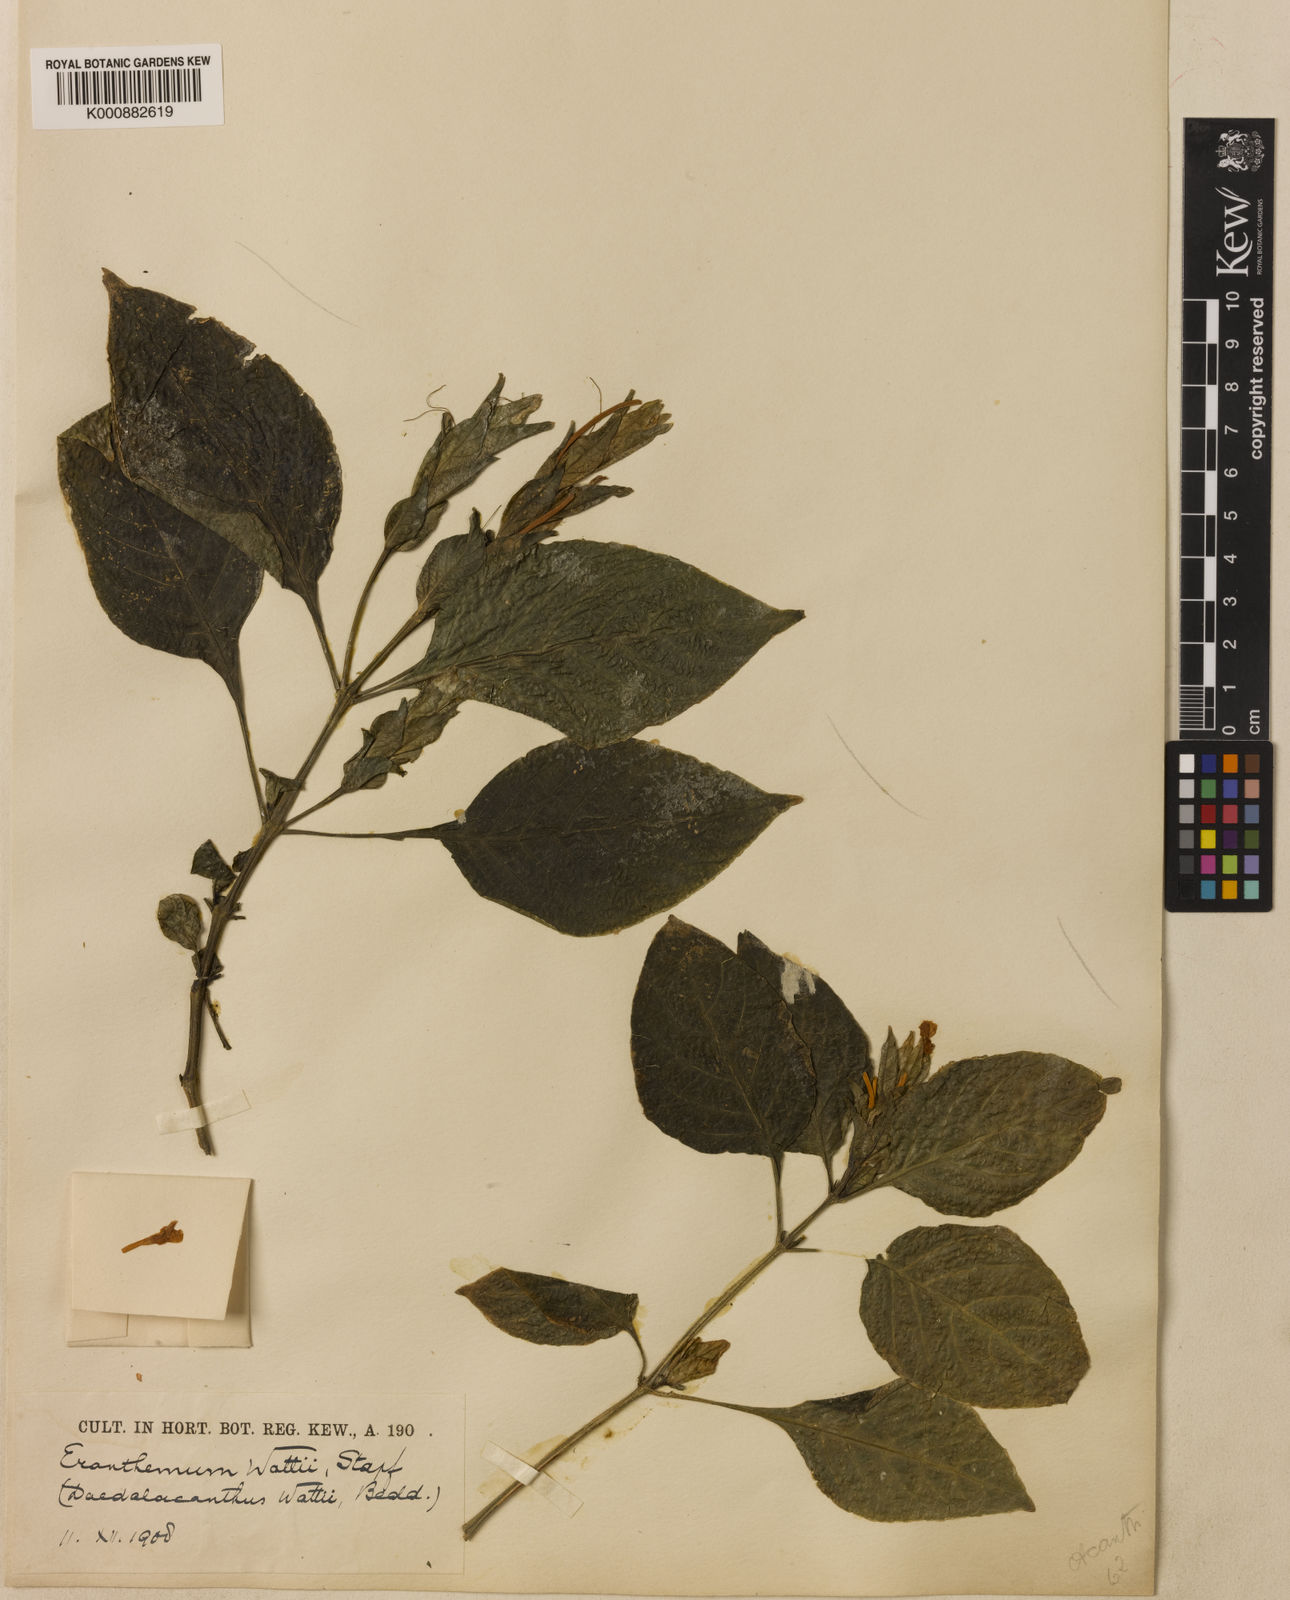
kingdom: Plantae
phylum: Tracheophyta
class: Magnoliopsida
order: Lamiales
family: Acanthaceae
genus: Eranthemum
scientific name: Eranthemum wattii
